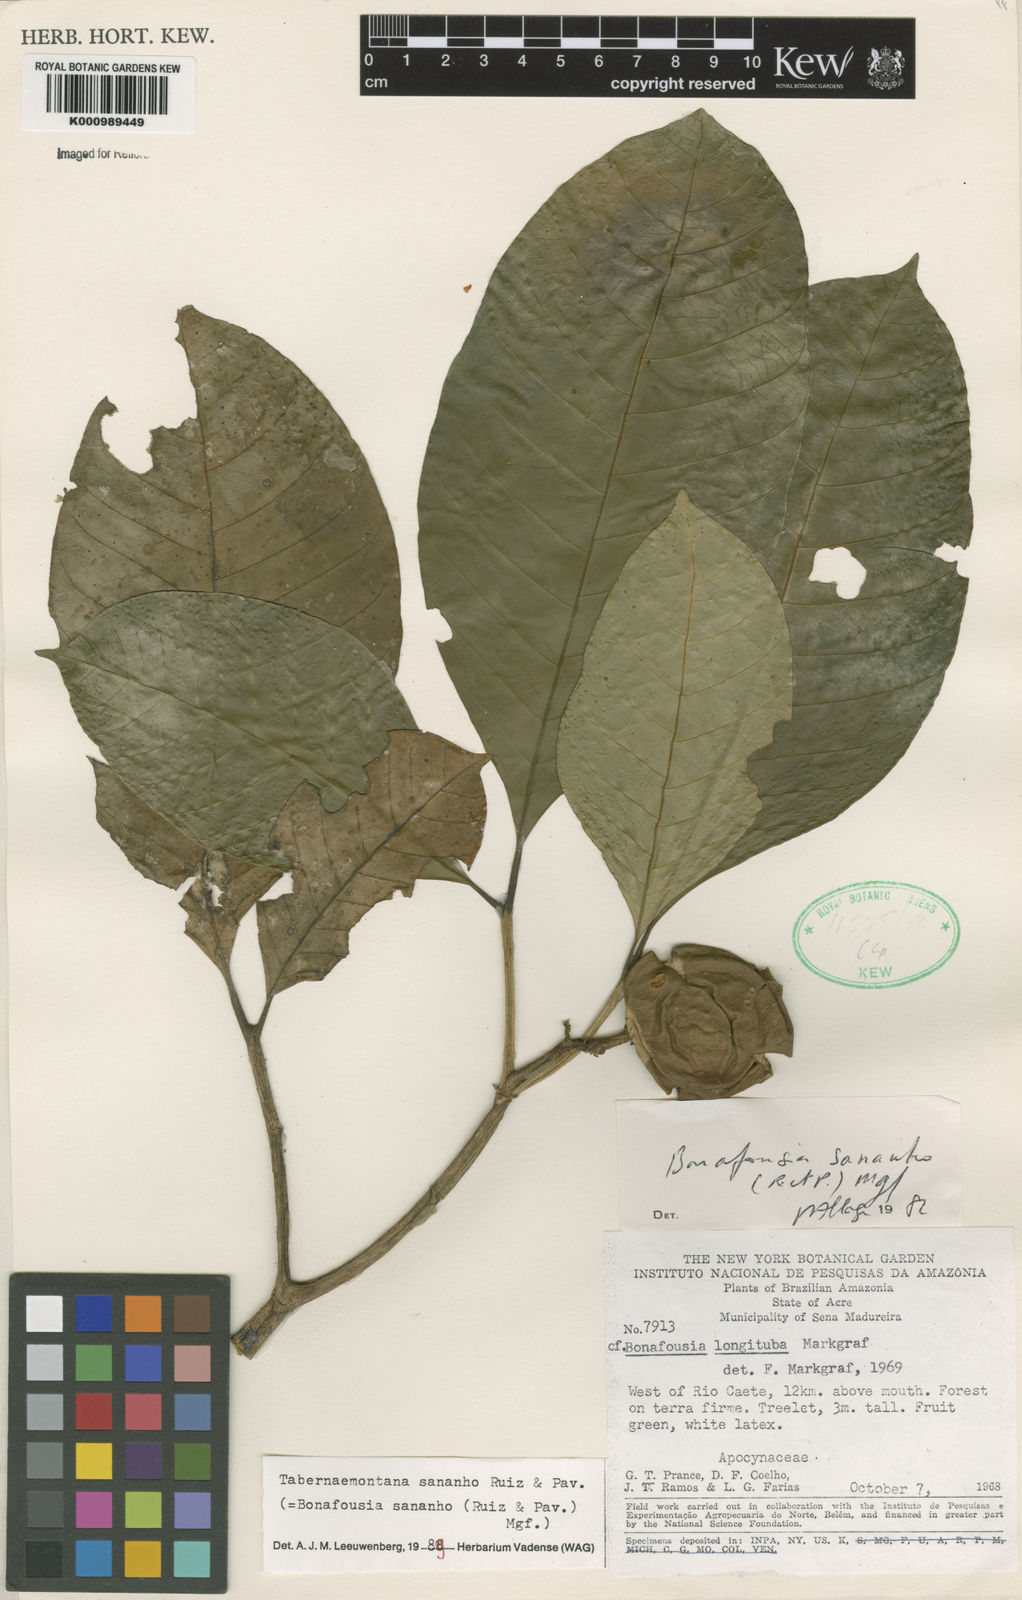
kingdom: Plantae
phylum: Tracheophyta
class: Magnoliopsida
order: Gentianales
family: Apocynaceae
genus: Tabernaemontana
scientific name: Tabernaemontana sananho
